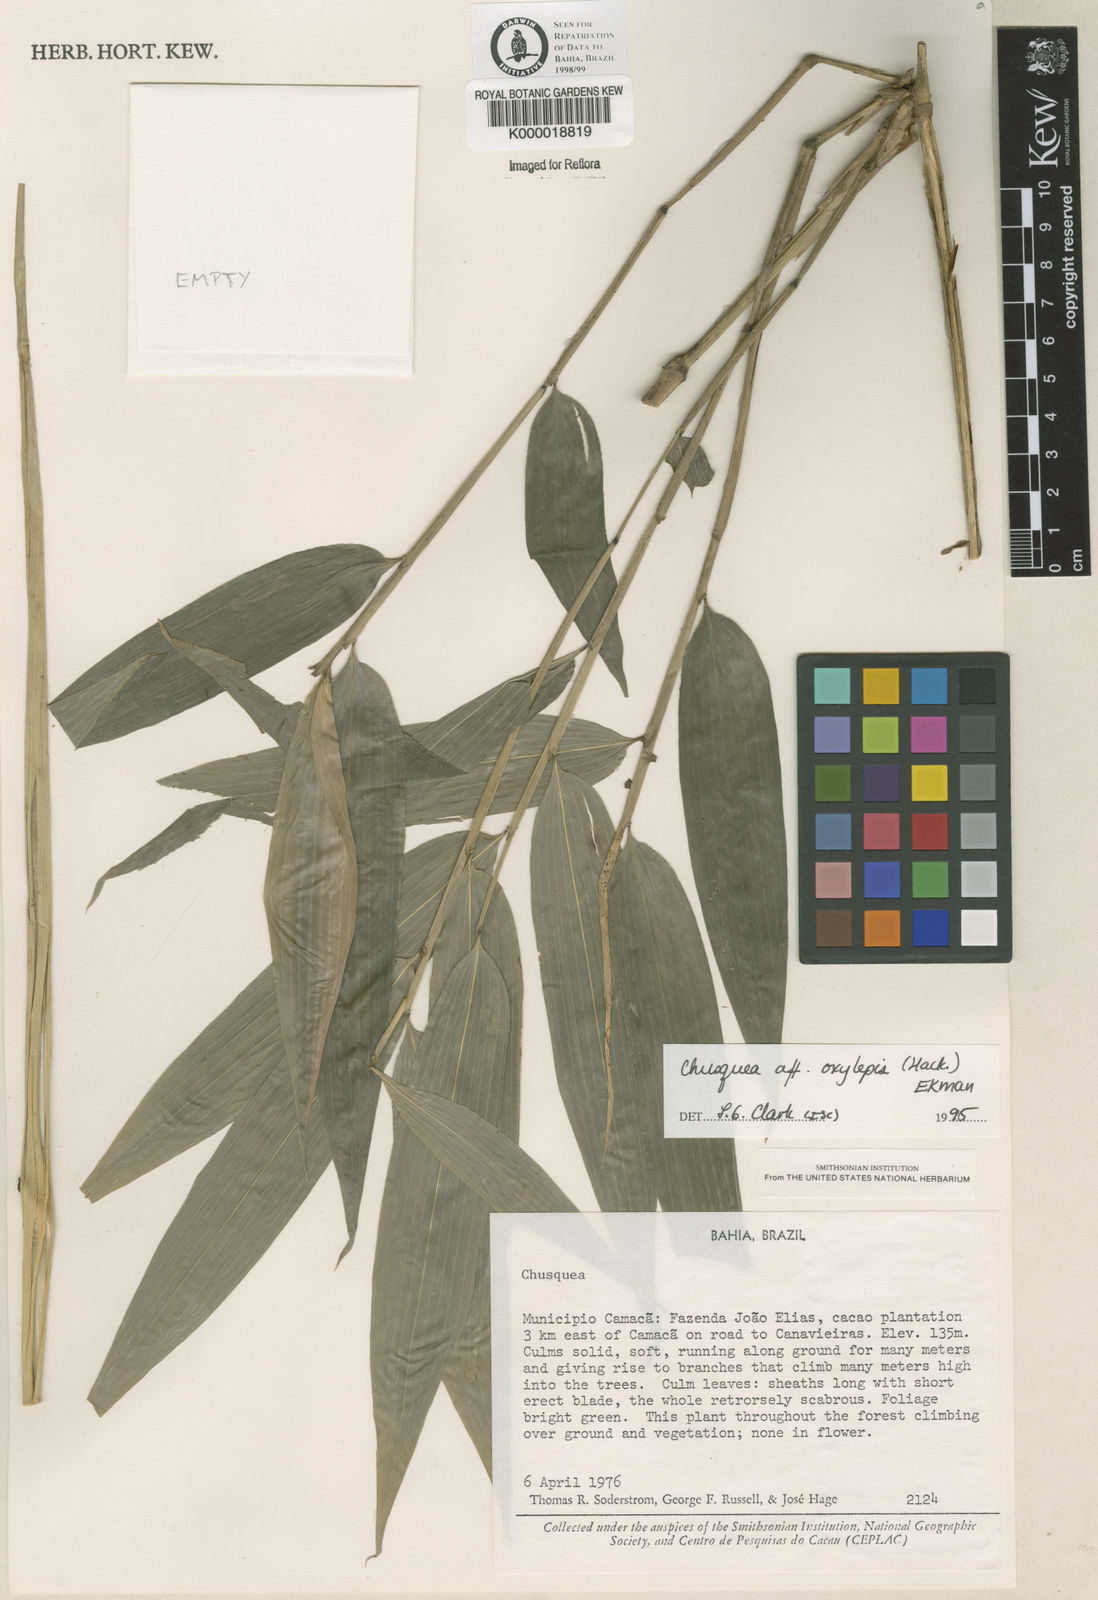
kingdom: Plantae
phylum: Tracheophyta
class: Liliopsida
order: Poales
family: Poaceae
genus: Chusquea
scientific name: Chusquea oxylepis
